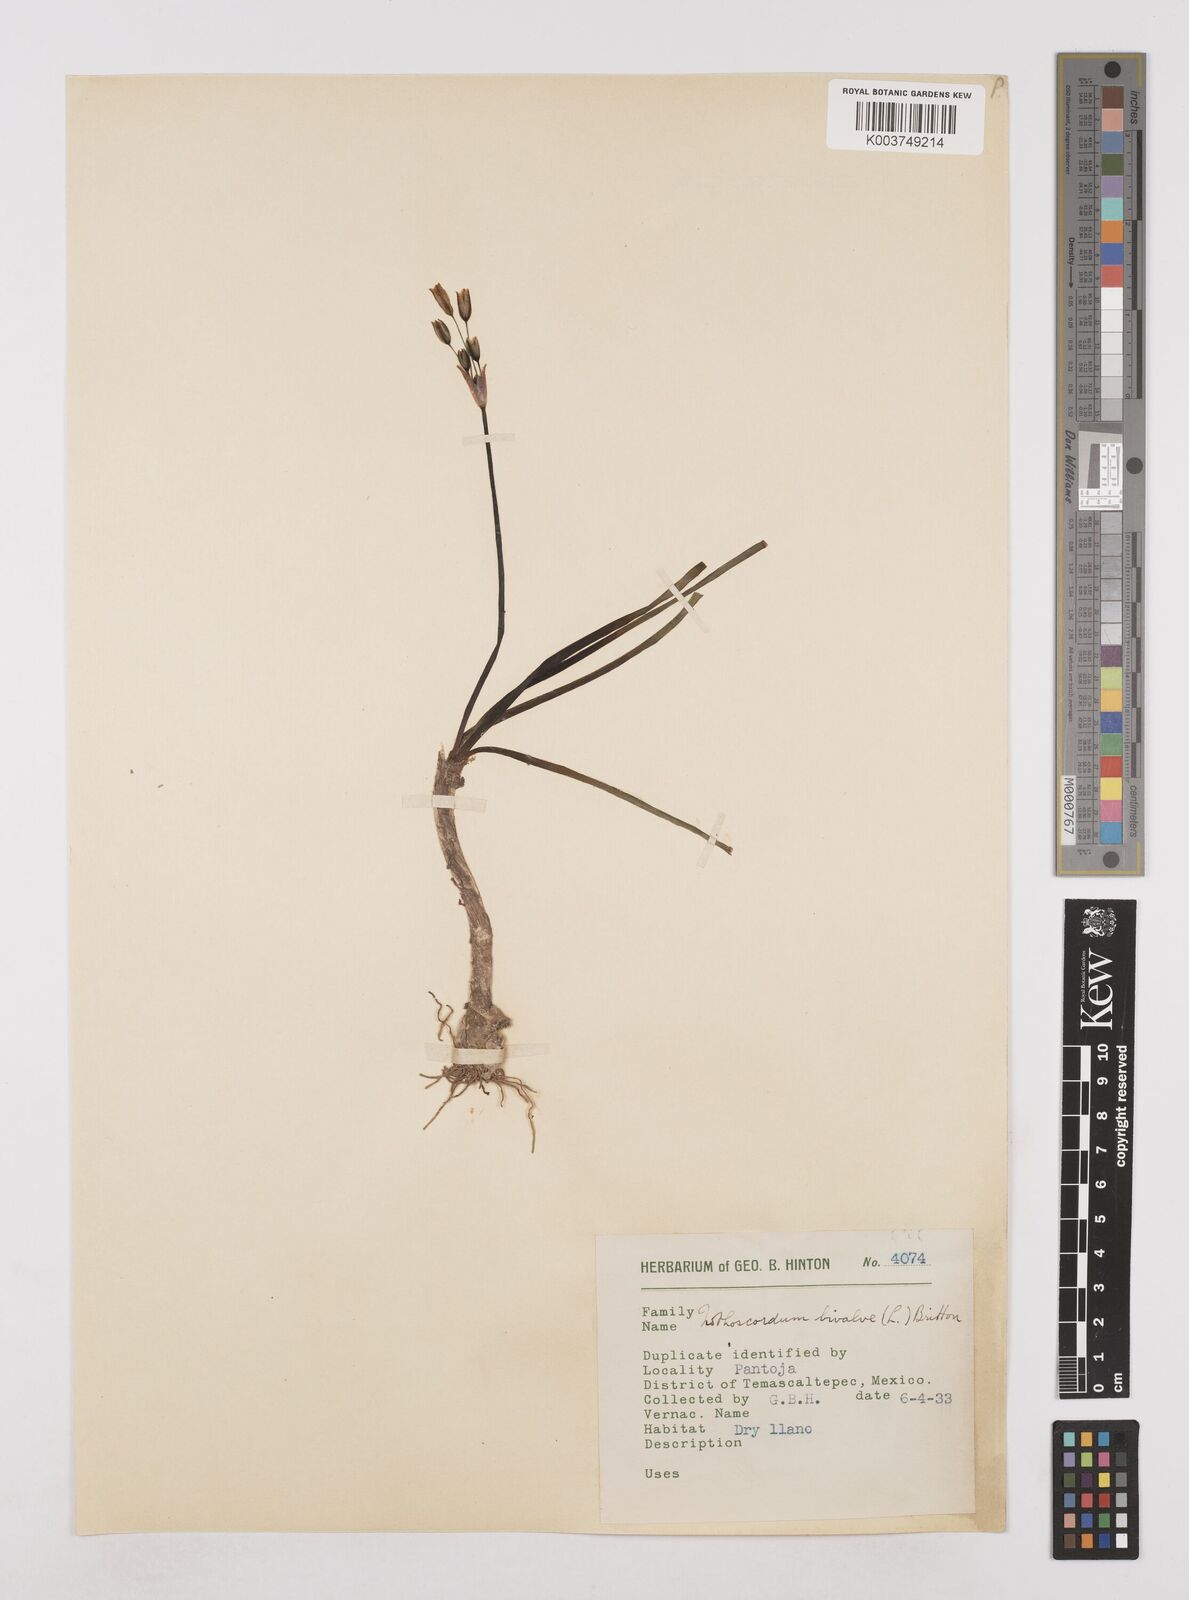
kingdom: Plantae
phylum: Tracheophyta
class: Liliopsida
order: Asparagales
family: Amaryllidaceae
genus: Nothoscordum
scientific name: Nothoscordum bivalve
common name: Crow-poison
